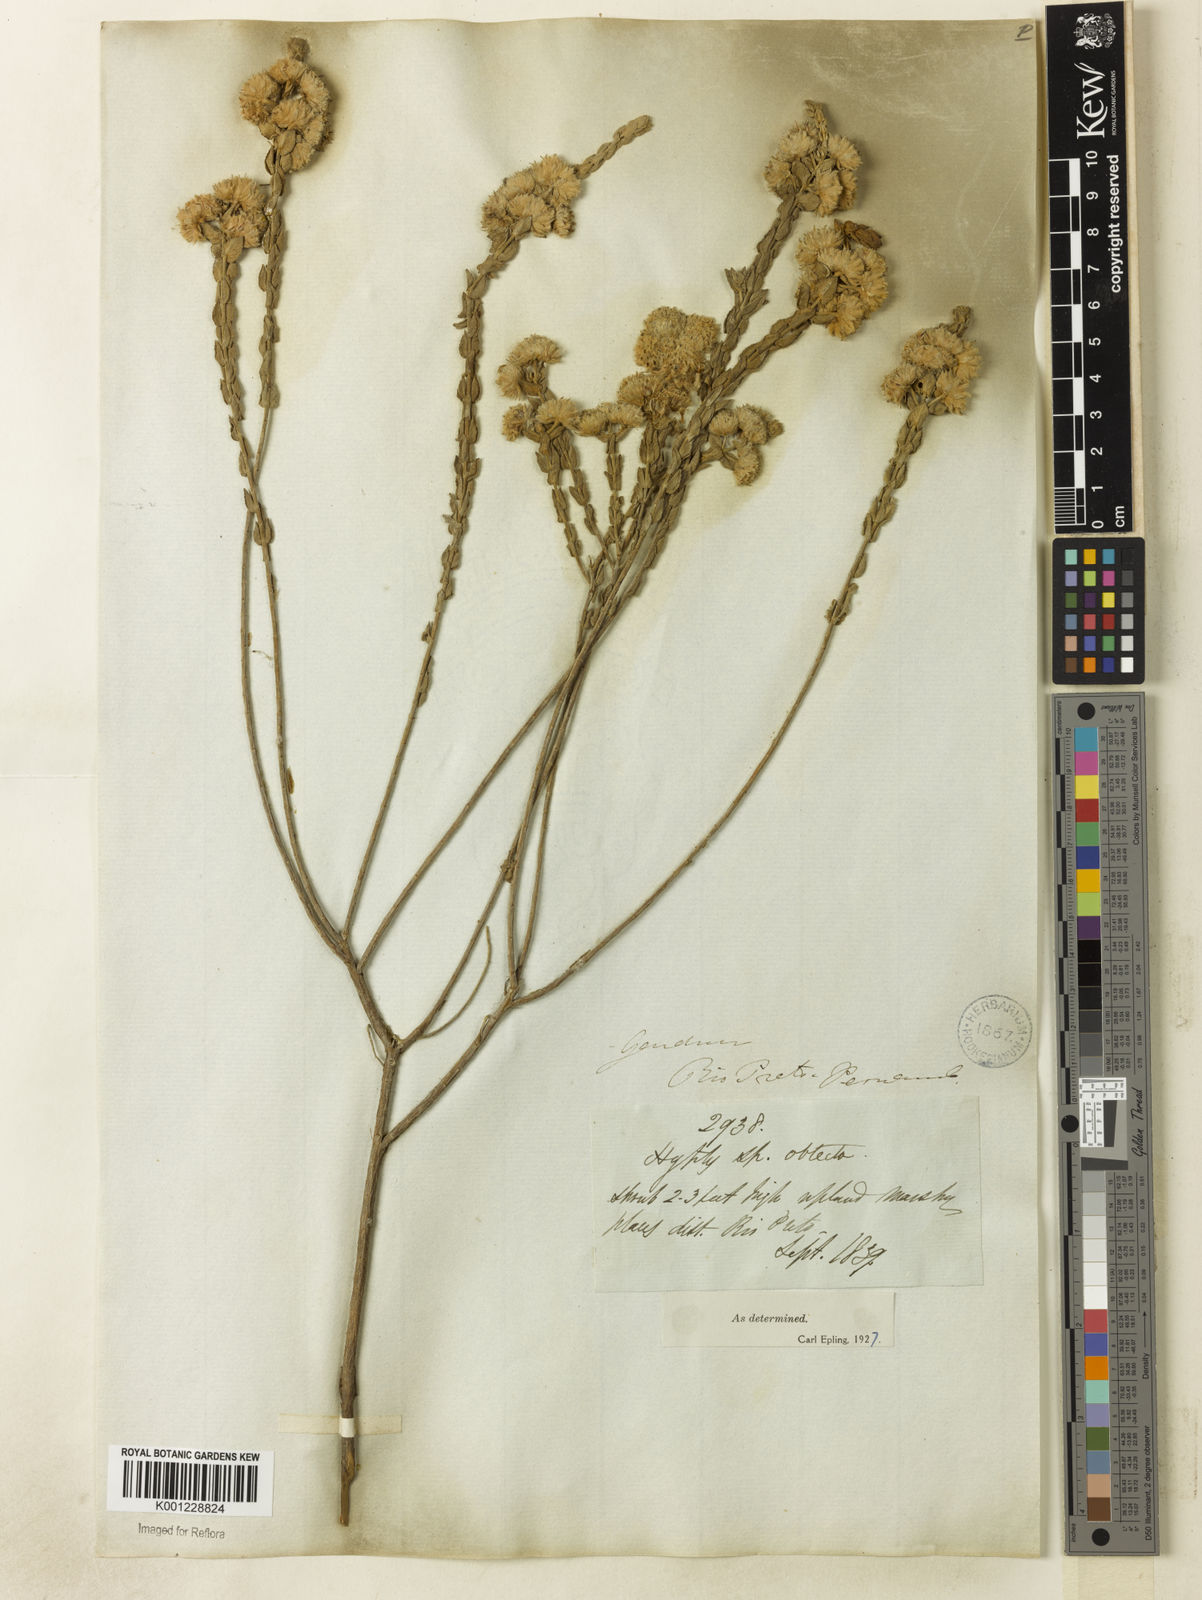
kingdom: Plantae
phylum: Tracheophyta
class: Magnoliopsida
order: Lamiales
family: Lamiaceae
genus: Hyptis
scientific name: Hyptis obtecta
